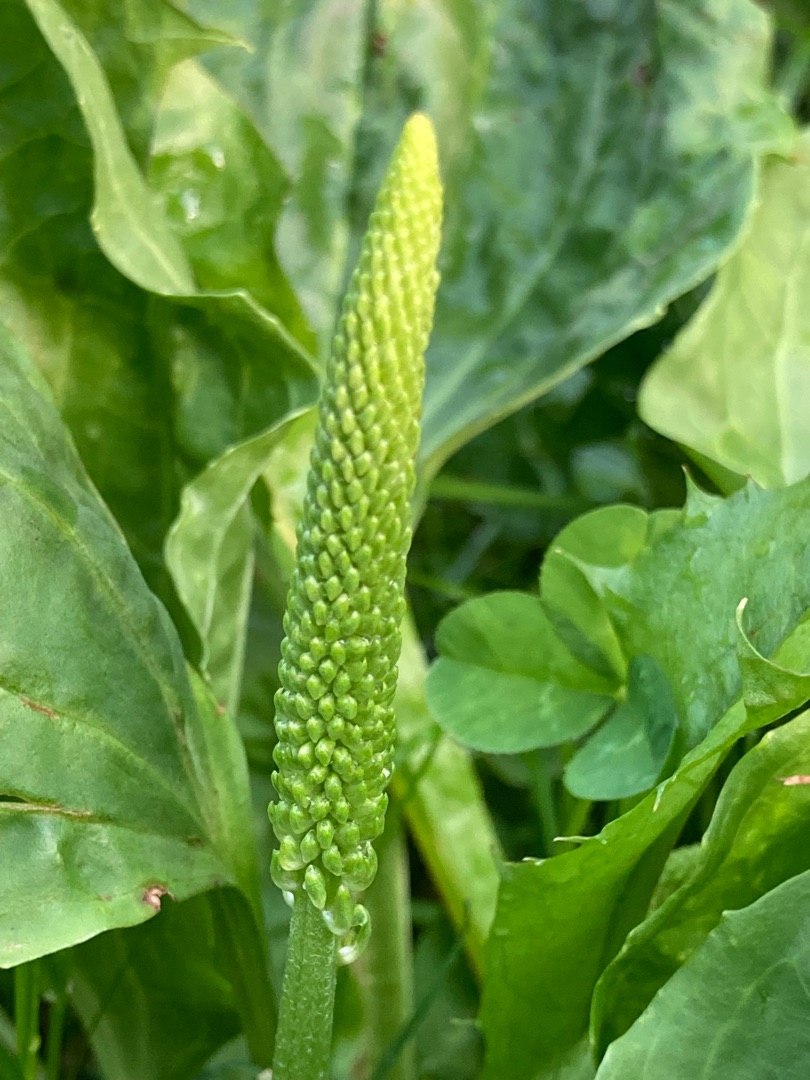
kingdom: Plantae
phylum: Tracheophyta
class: Magnoliopsida
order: Lamiales
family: Plantaginaceae
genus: Plantago
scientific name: Plantago major
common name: Glat vejbred
